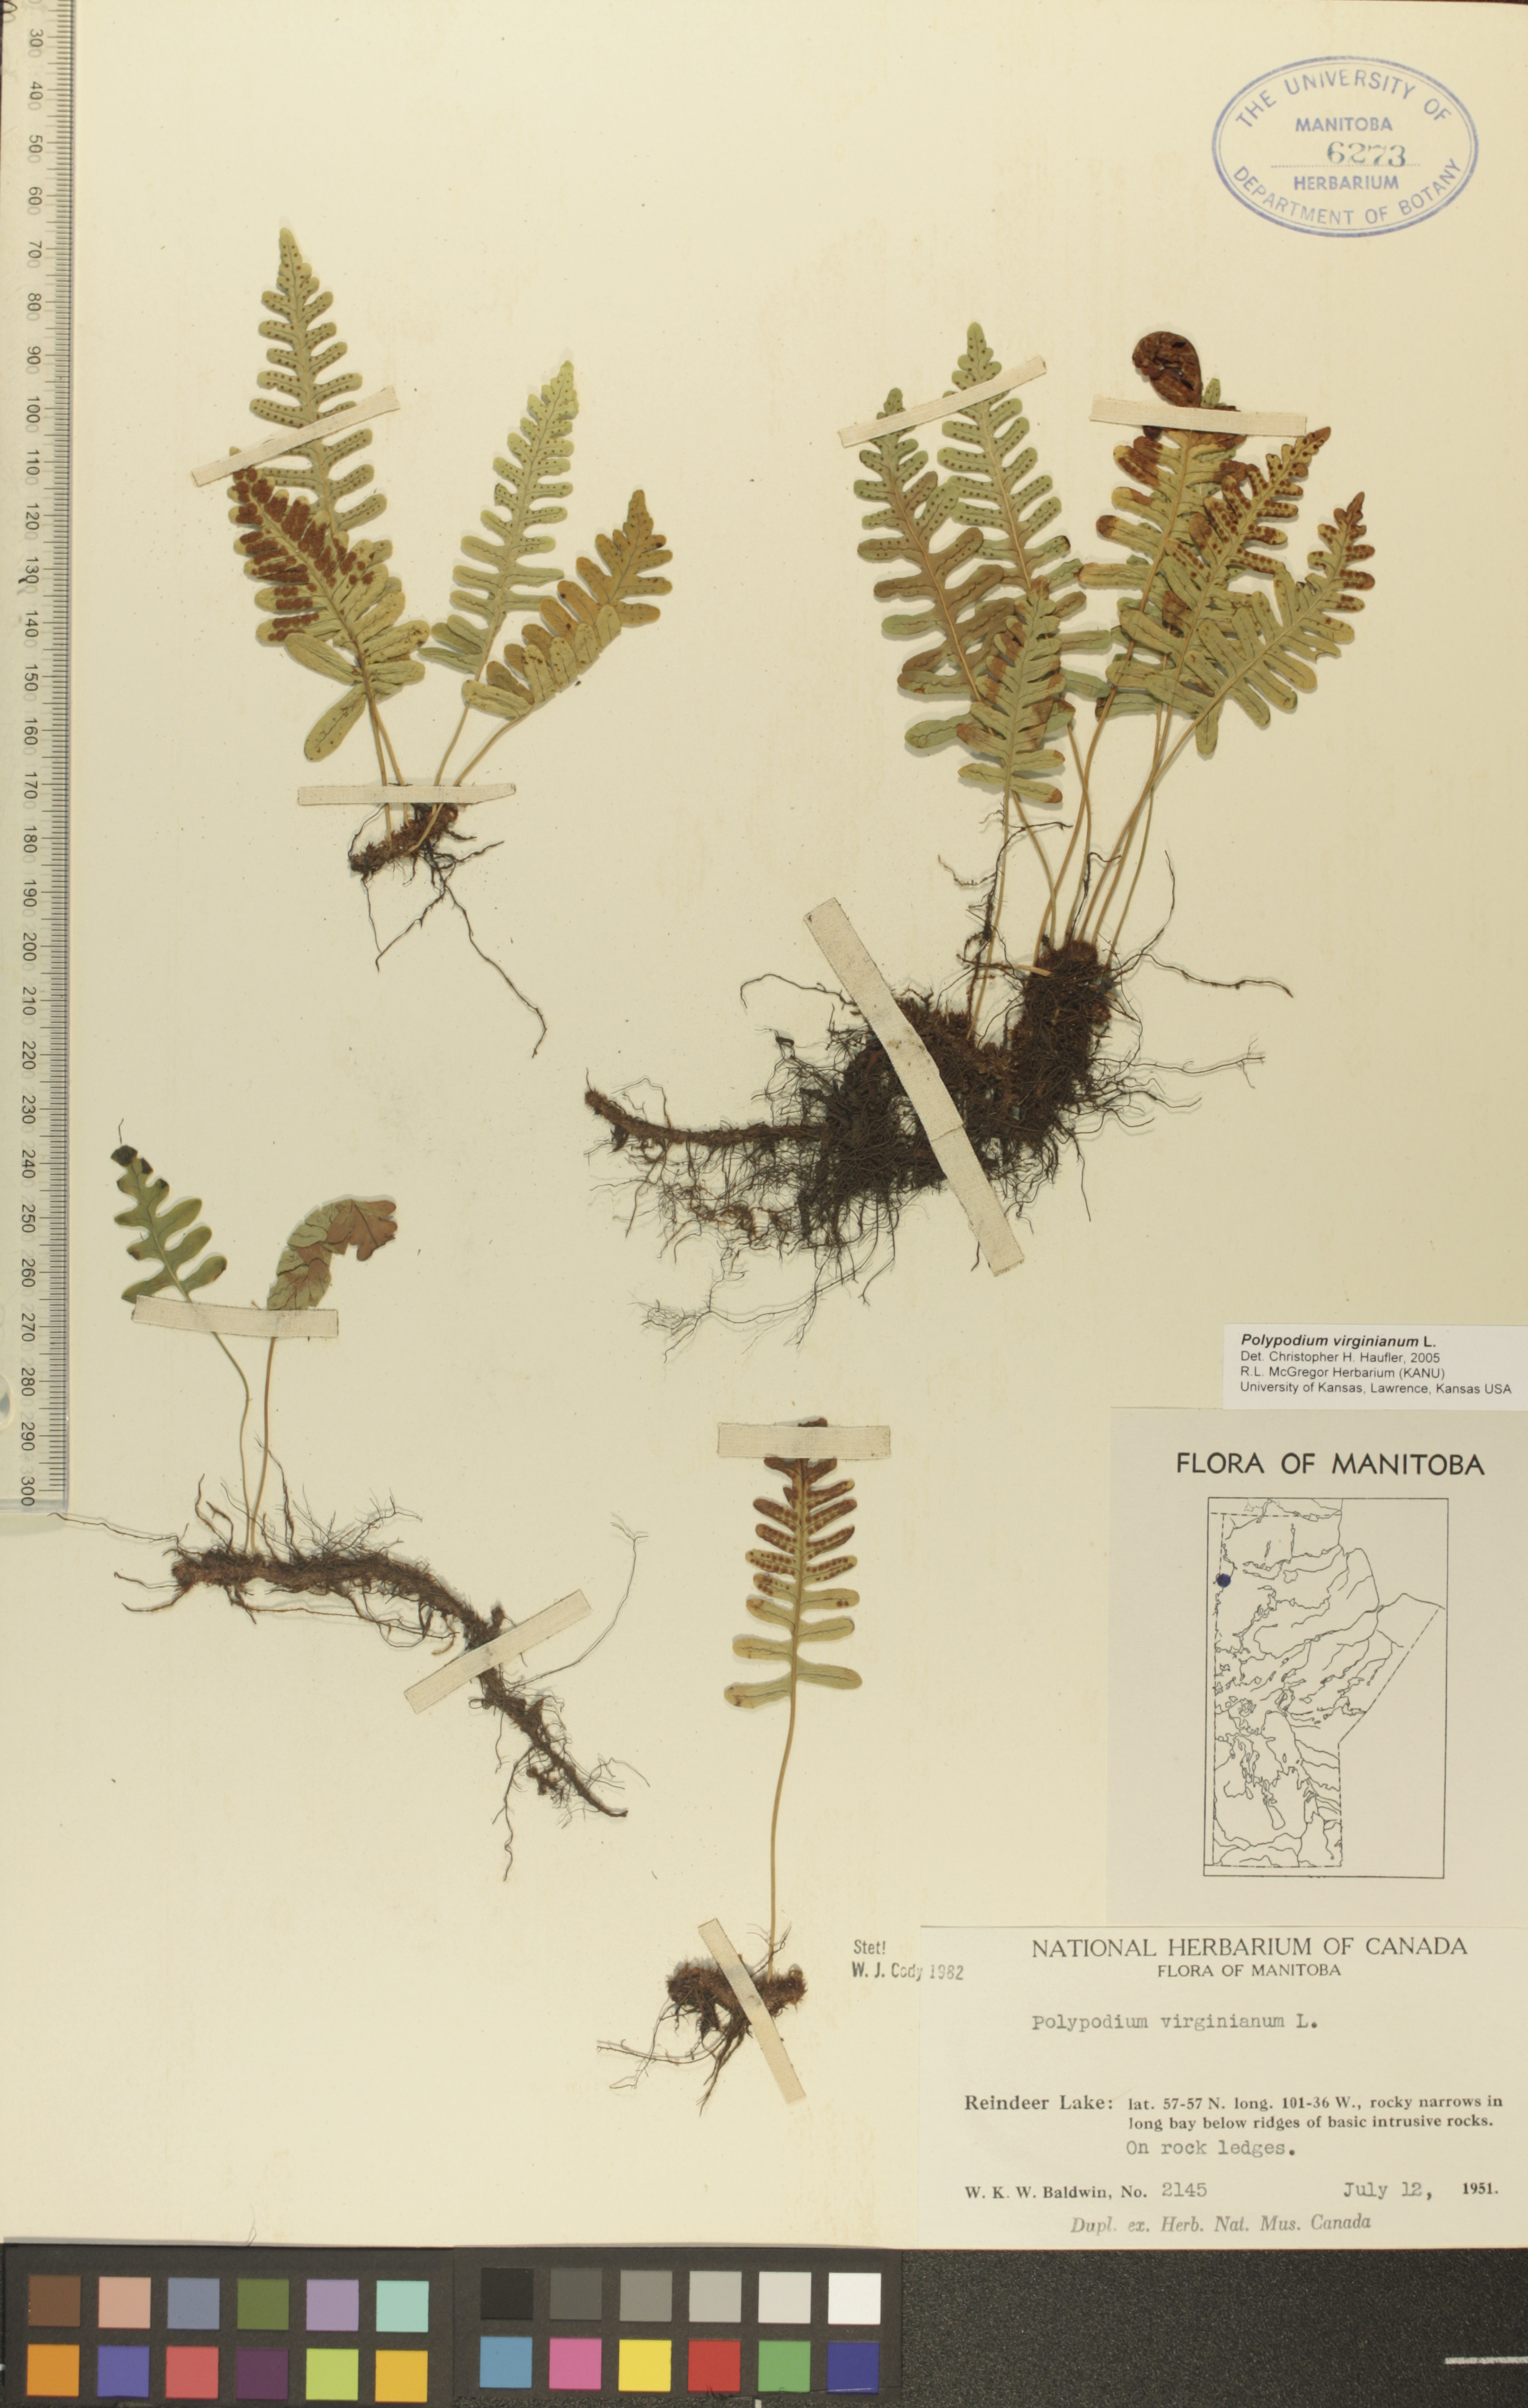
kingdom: Plantae
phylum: Tracheophyta
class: Polypodiopsida
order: Polypodiales
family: Polypodiaceae
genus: Polypodium
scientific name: Polypodium virginianum
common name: American wall fern
